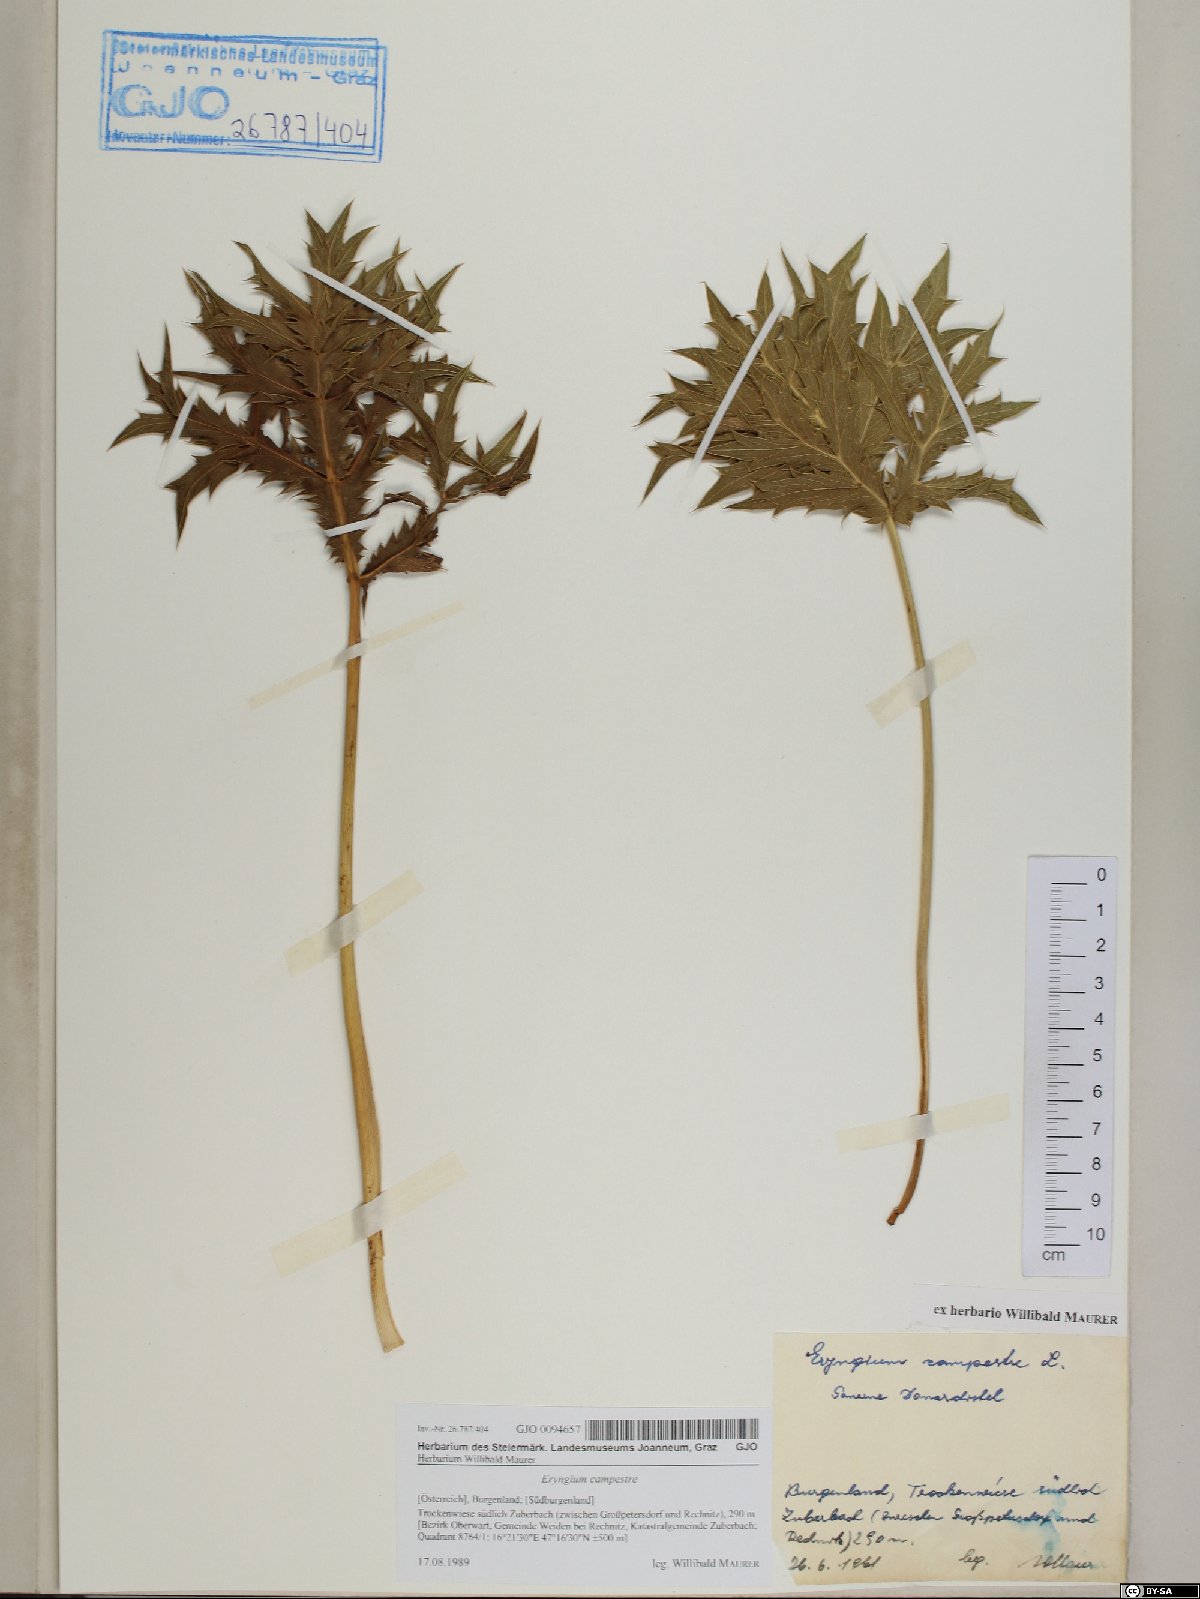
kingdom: Plantae
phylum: Tracheophyta
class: Magnoliopsida
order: Apiales
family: Apiaceae
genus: Eryngium
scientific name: Eryngium campestre
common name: Field eryngo
